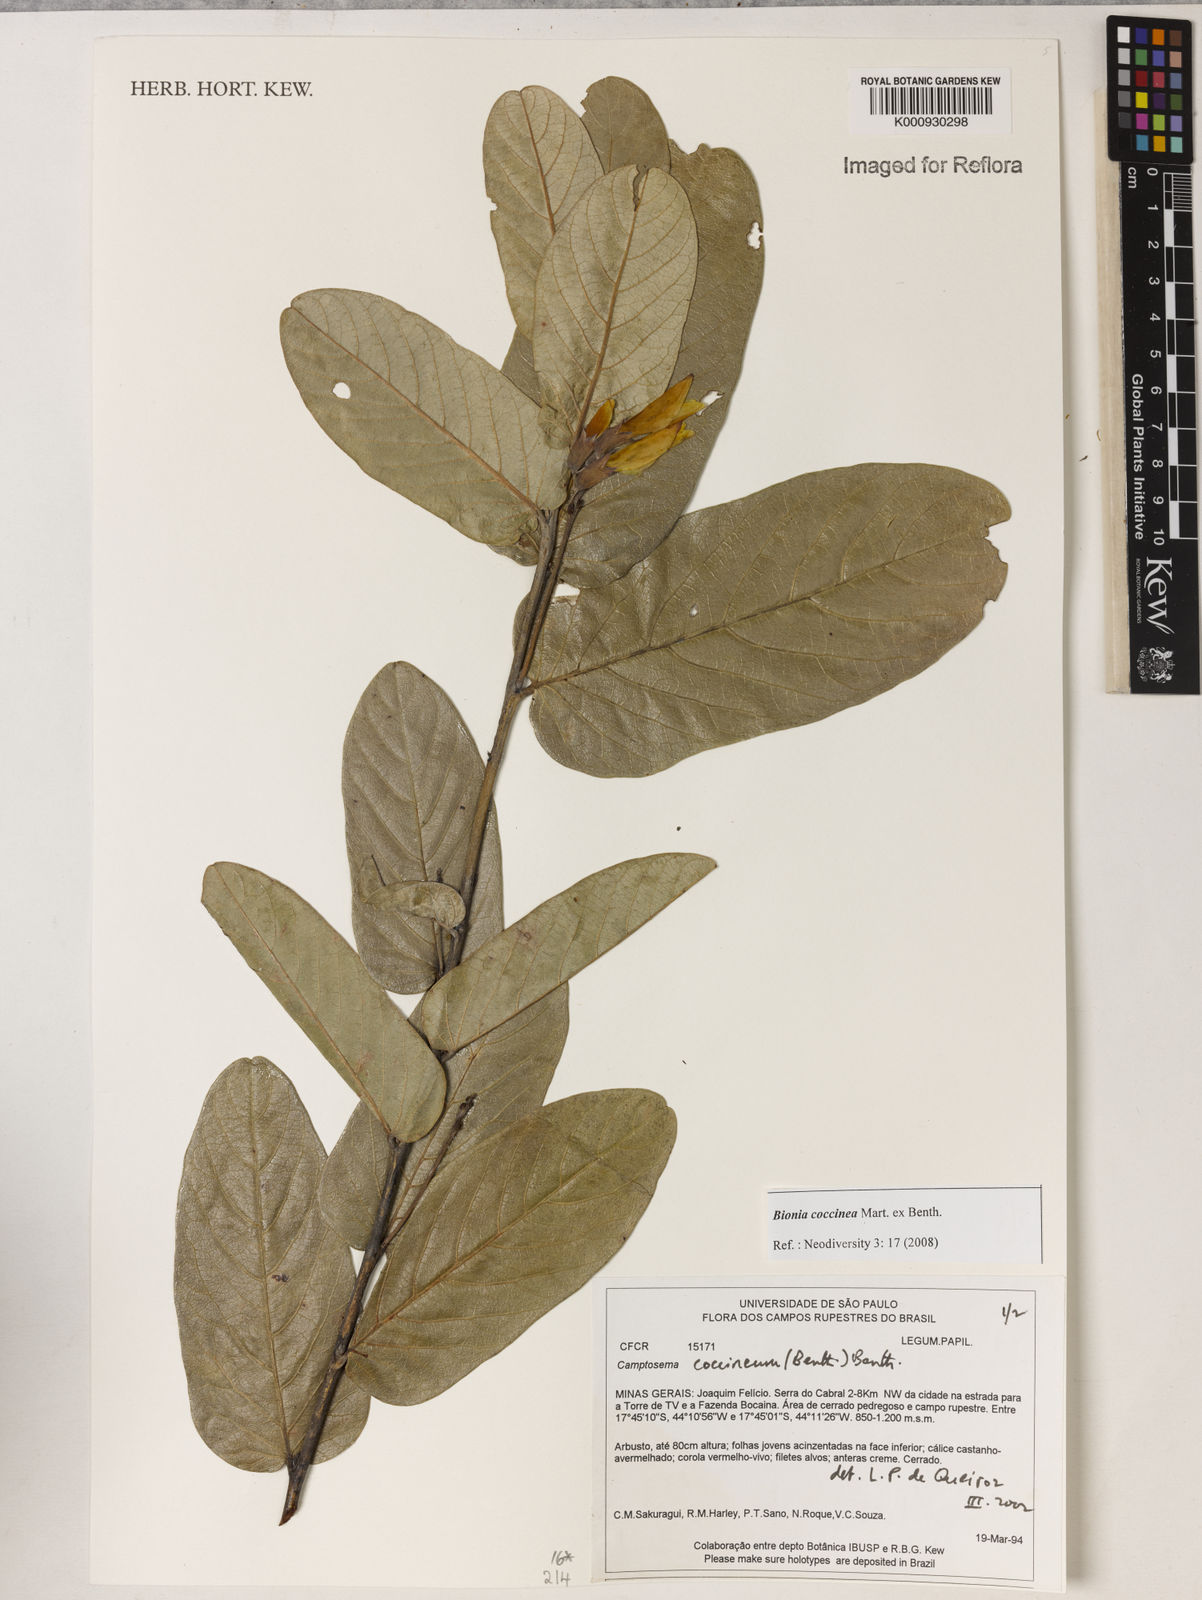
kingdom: Plantae
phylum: Tracheophyta
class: Magnoliopsida
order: Fabales
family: Fabaceae
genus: Camptosema
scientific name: Camptosema coccineum
